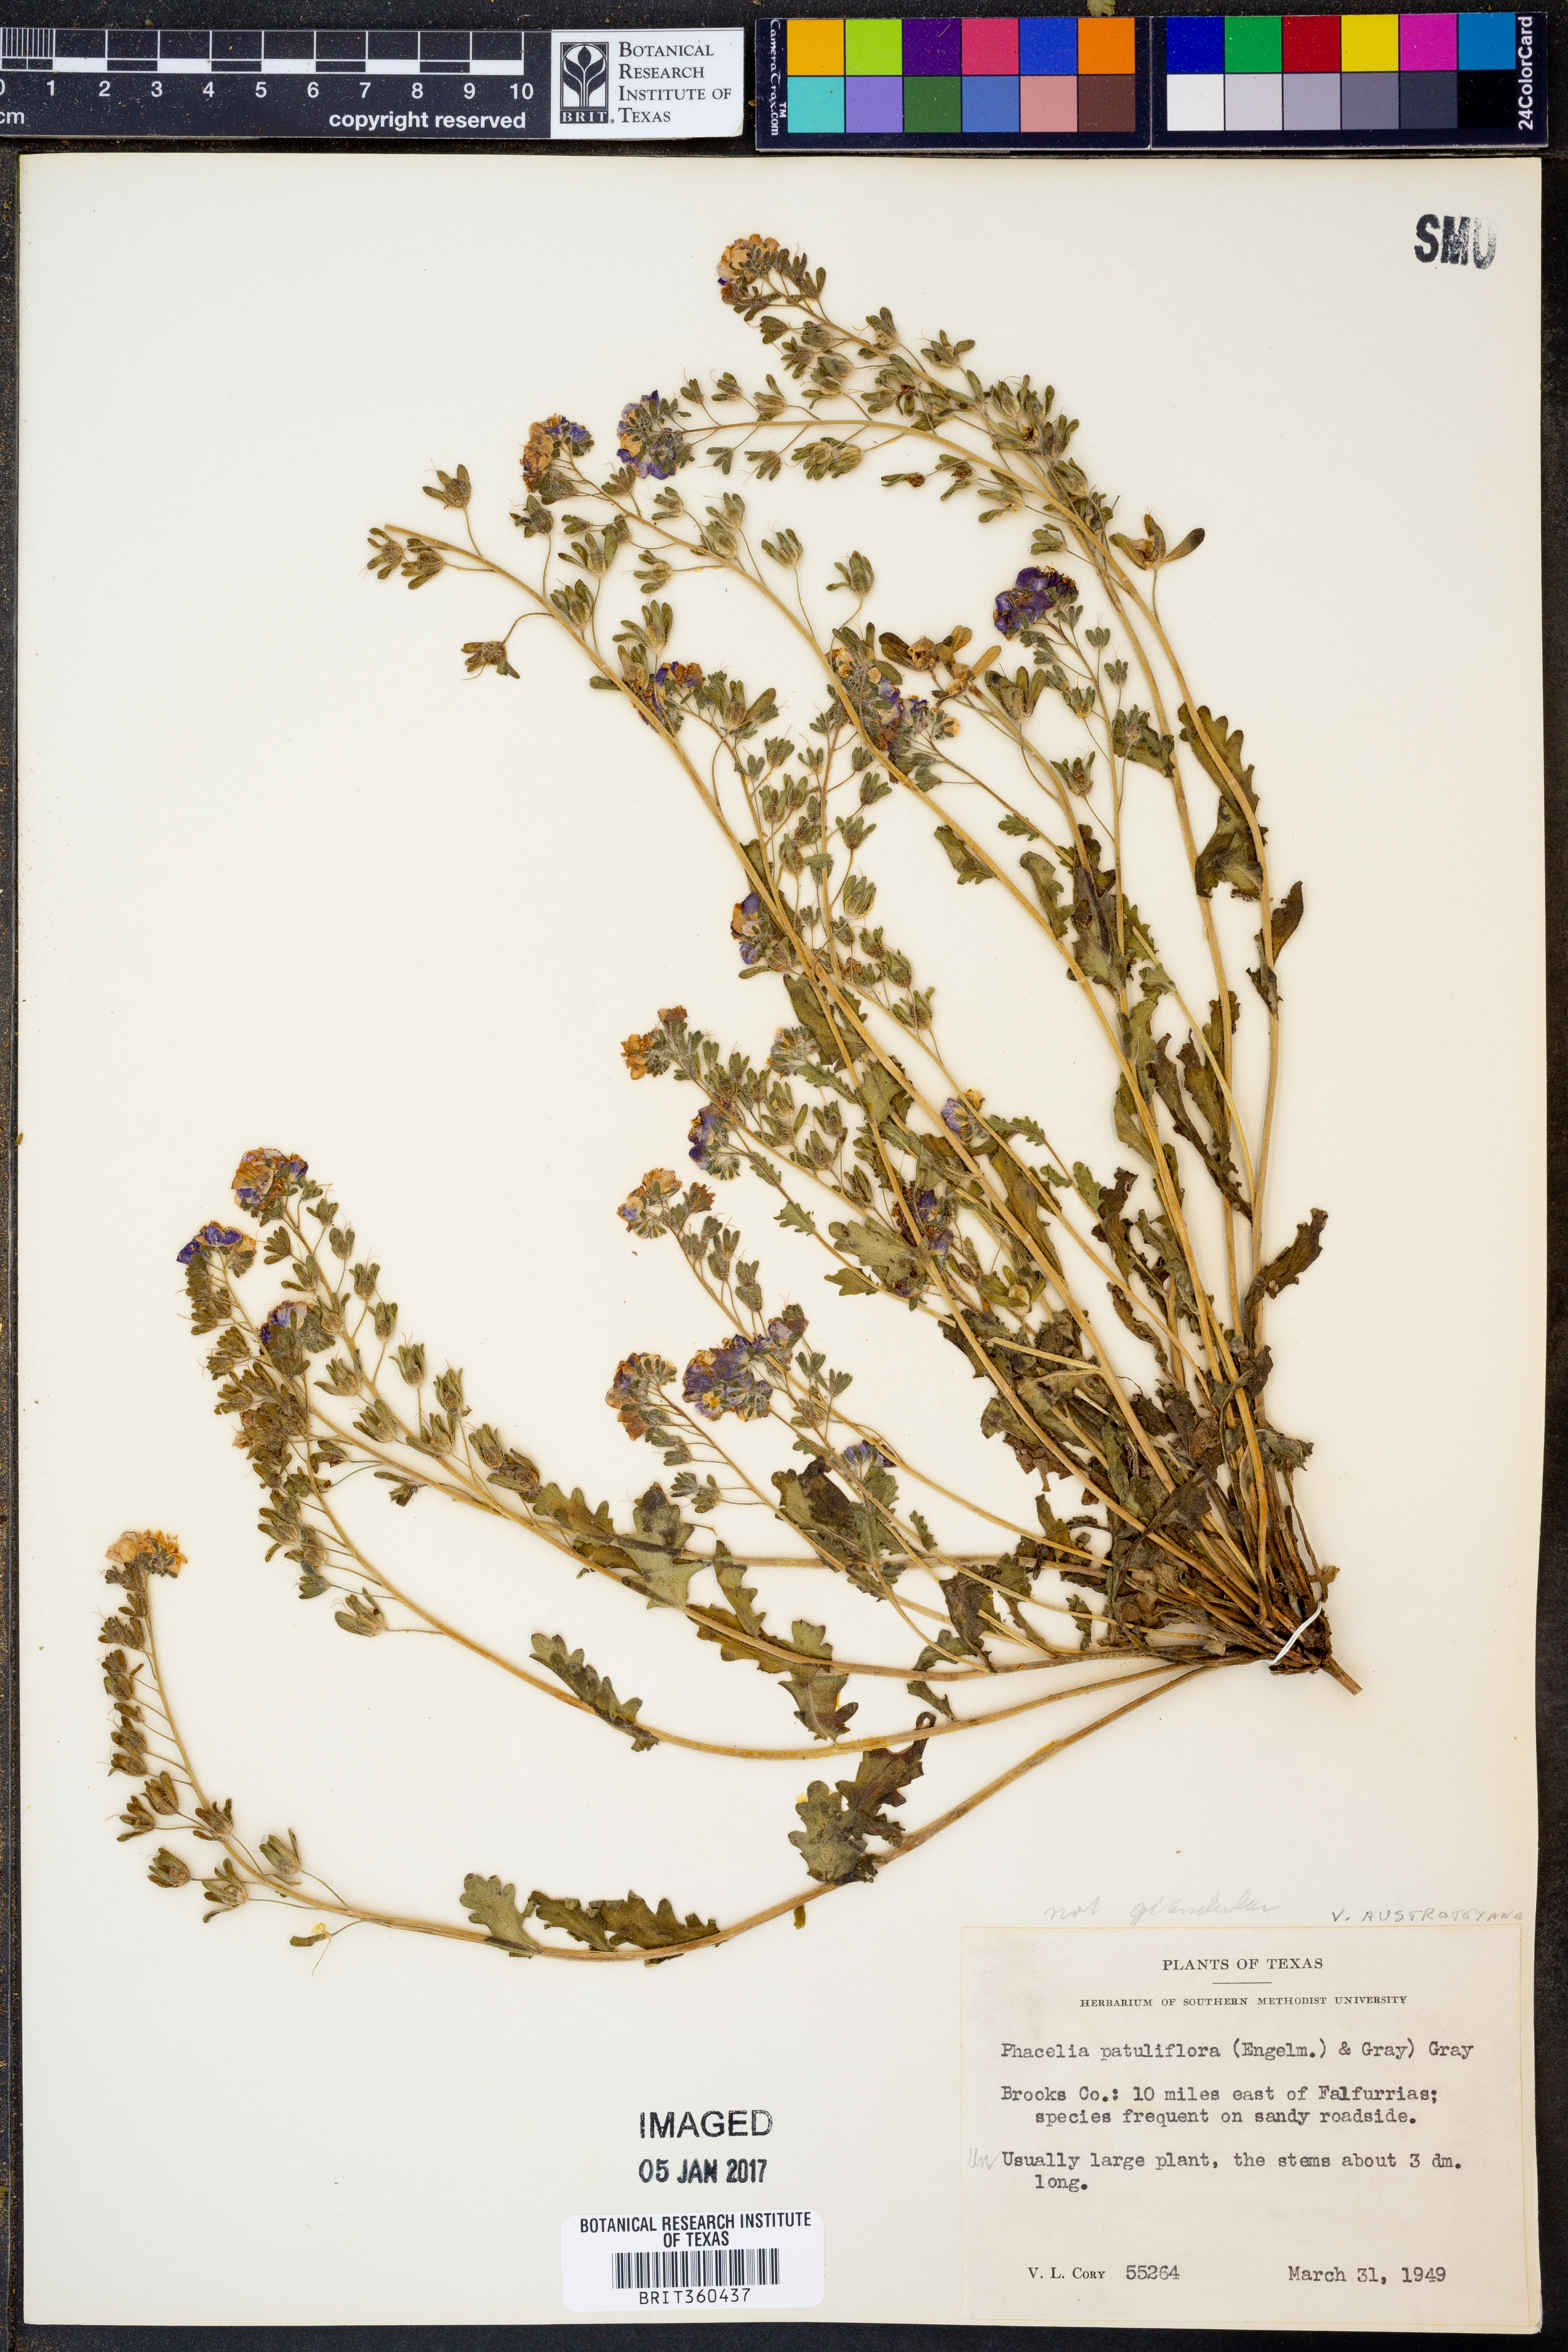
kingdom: Plantae
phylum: Tracheophyta
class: Magnoliopsida
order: Boraginales
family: Hydrophyllaceae
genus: Phacelia
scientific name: Phacelia austrotexana
